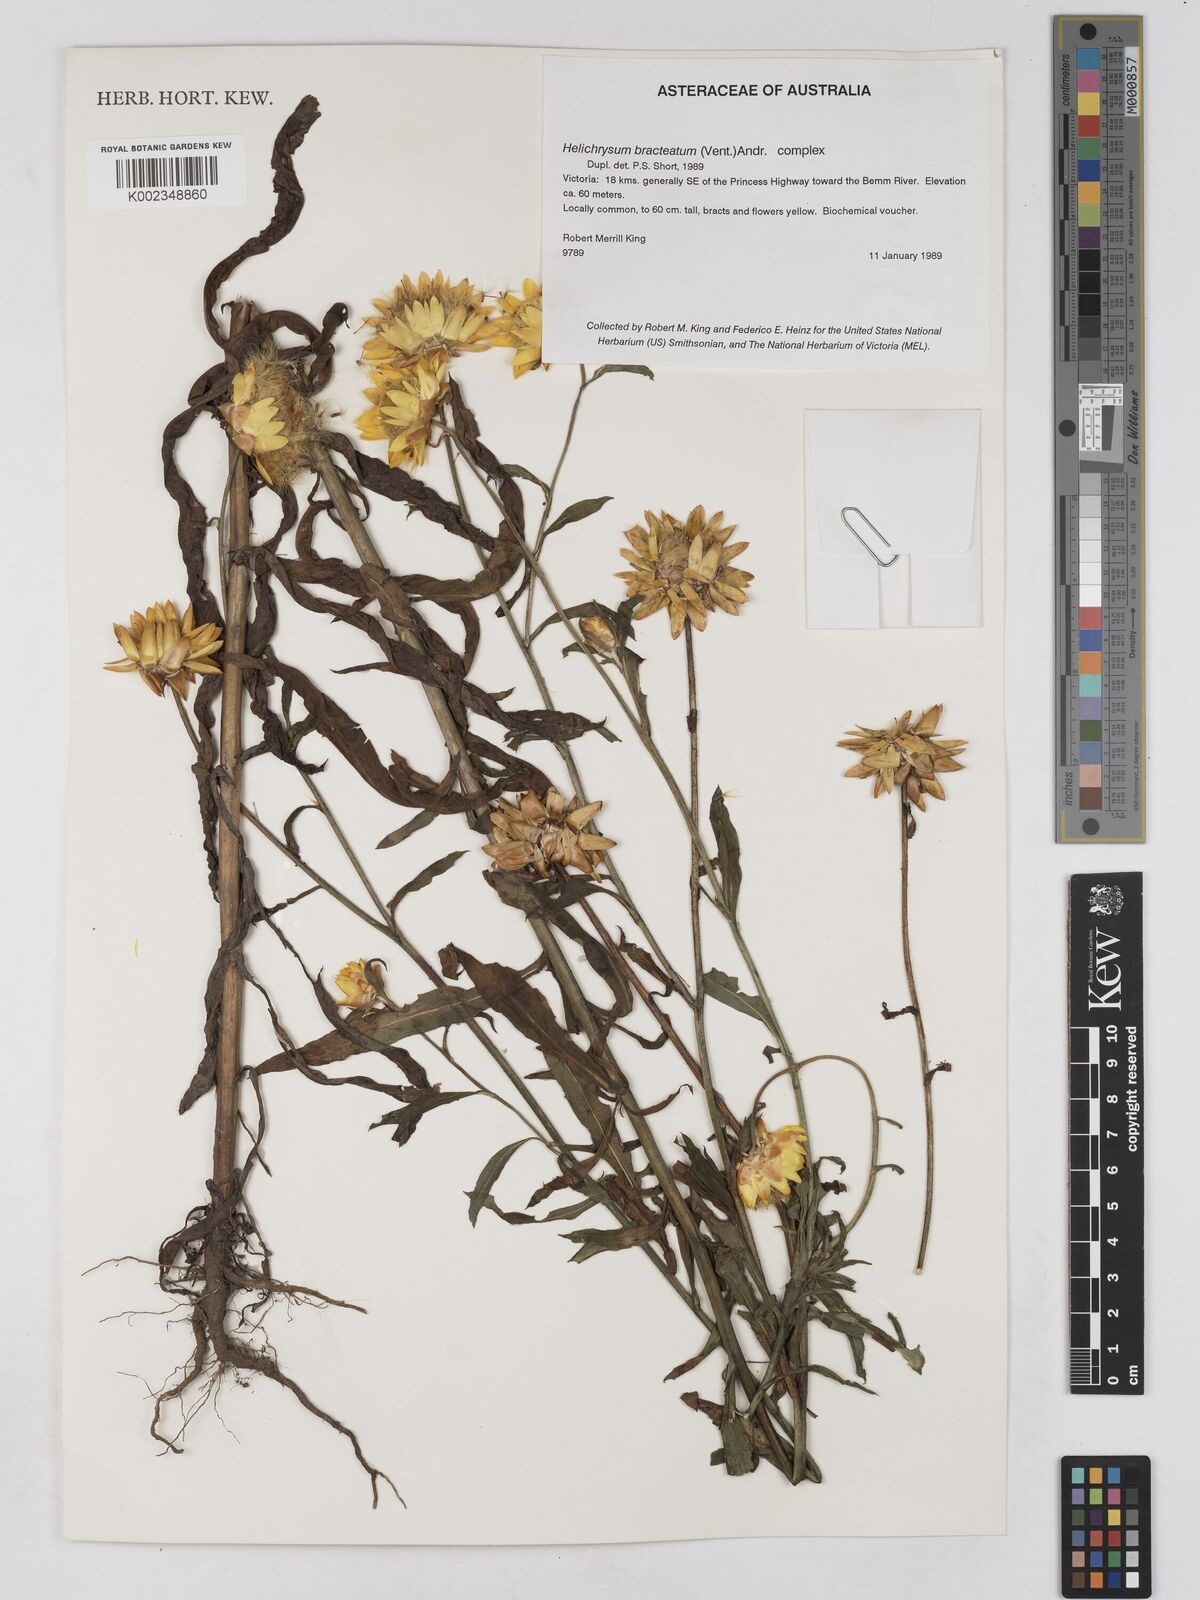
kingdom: Plantae
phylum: Tracheophyta
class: Magnoliopsida
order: Asterales
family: Asteraceae
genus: Xerochrysum
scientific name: Xerochrysum bracteatum
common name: Bracted strawflower
